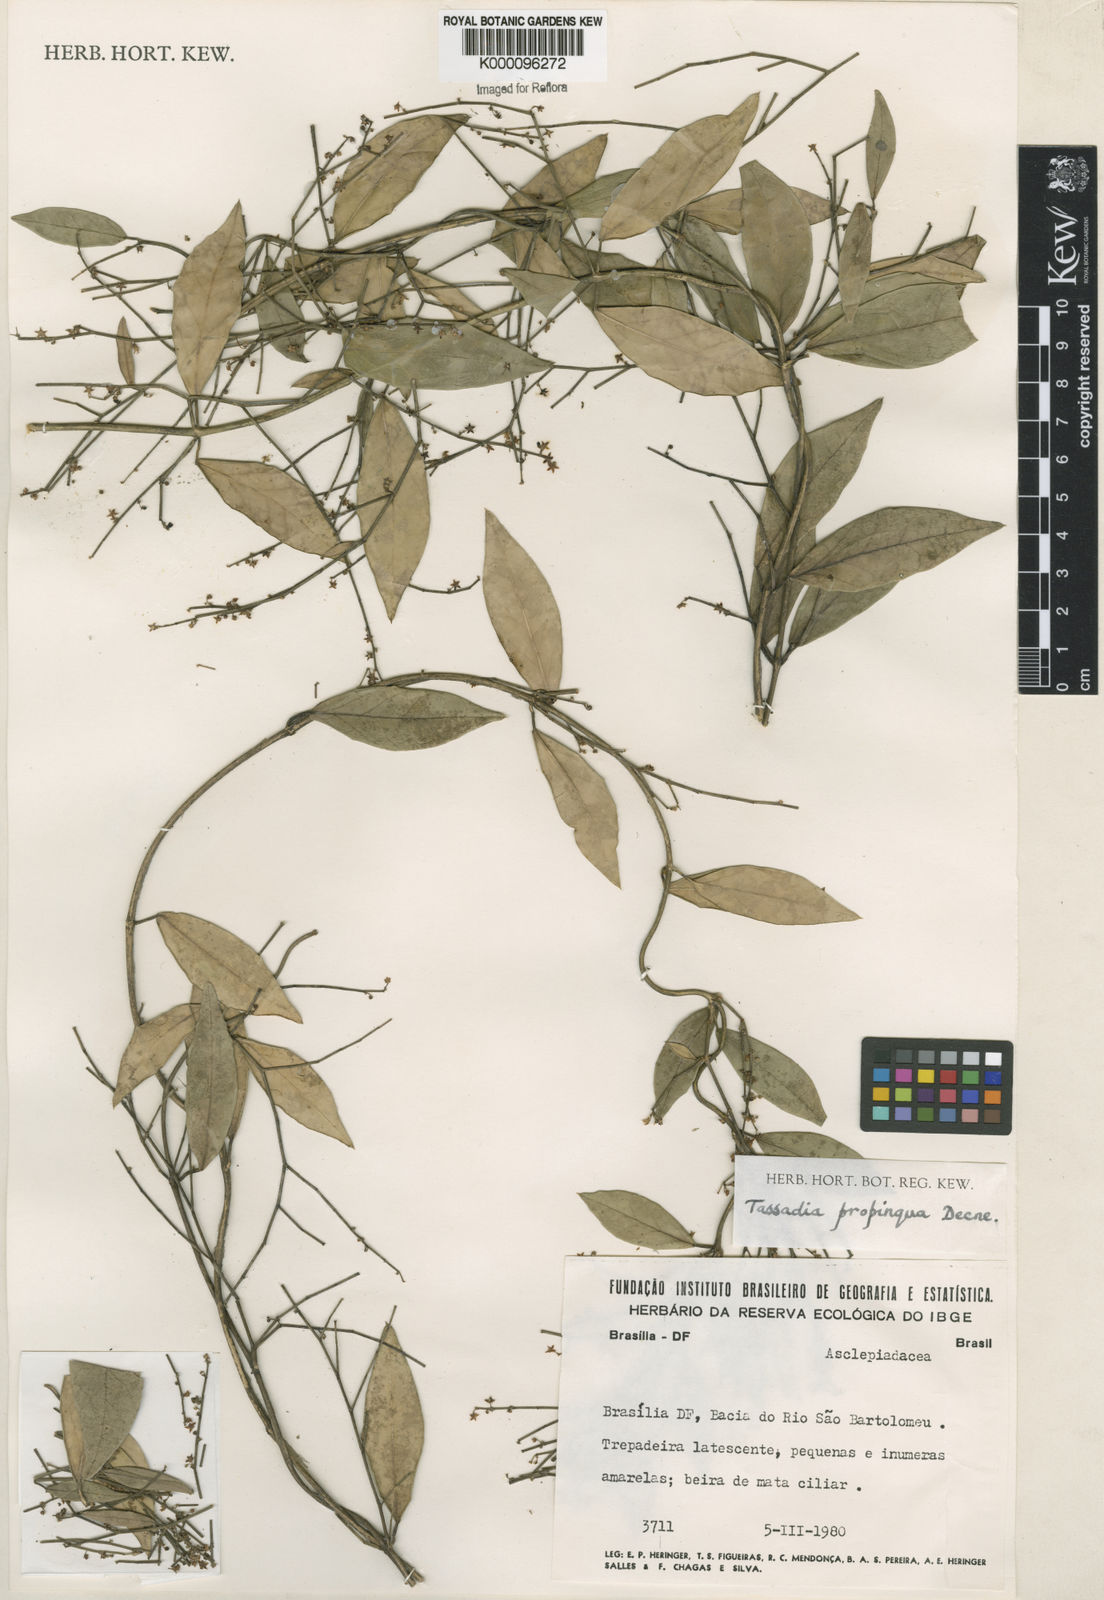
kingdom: Plantae
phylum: Tracheophyta
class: Magnoliopsida
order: Gentianales
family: Apocynaceae
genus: Tassadia
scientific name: Tassadia propinqua
